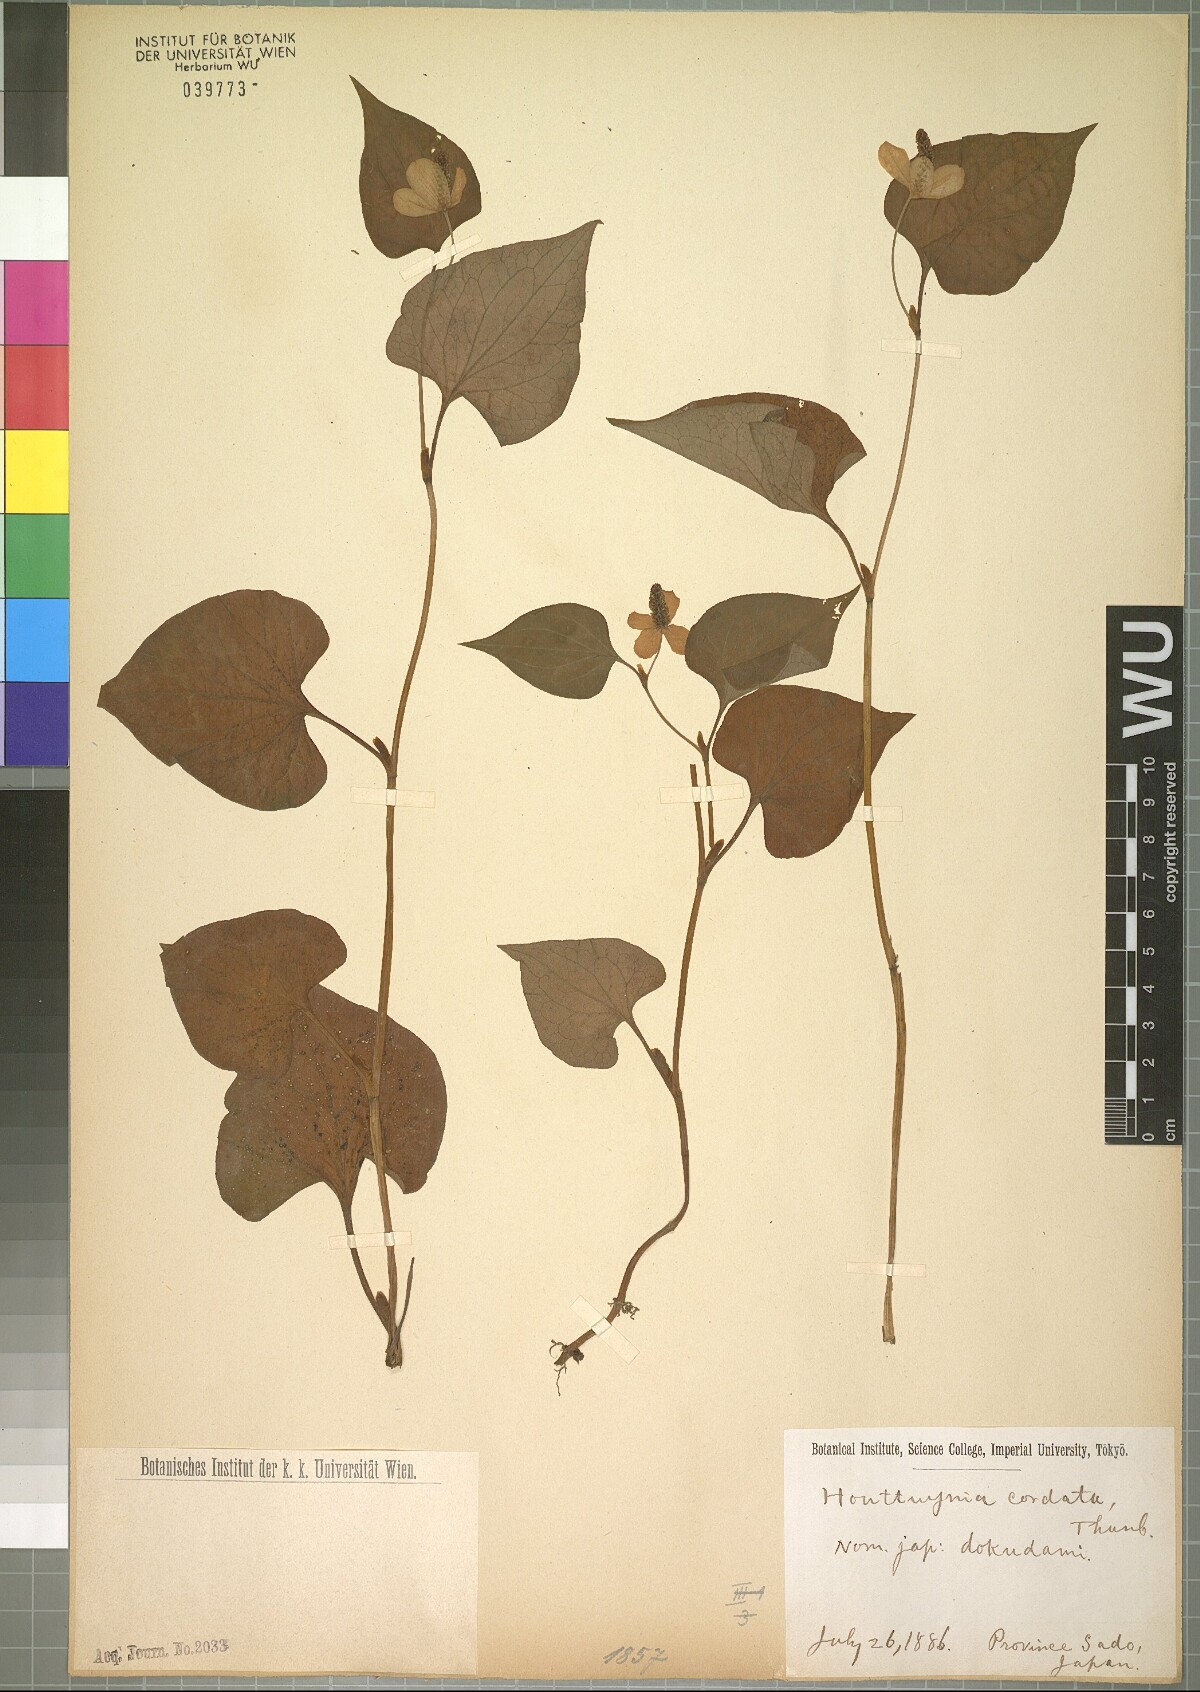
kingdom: Plantae
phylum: Tracheophyta
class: Magnoliopsida
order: Piperales
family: Saururaceae
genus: Houttuynia
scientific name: Houttuynia cordata
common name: Chameleon
